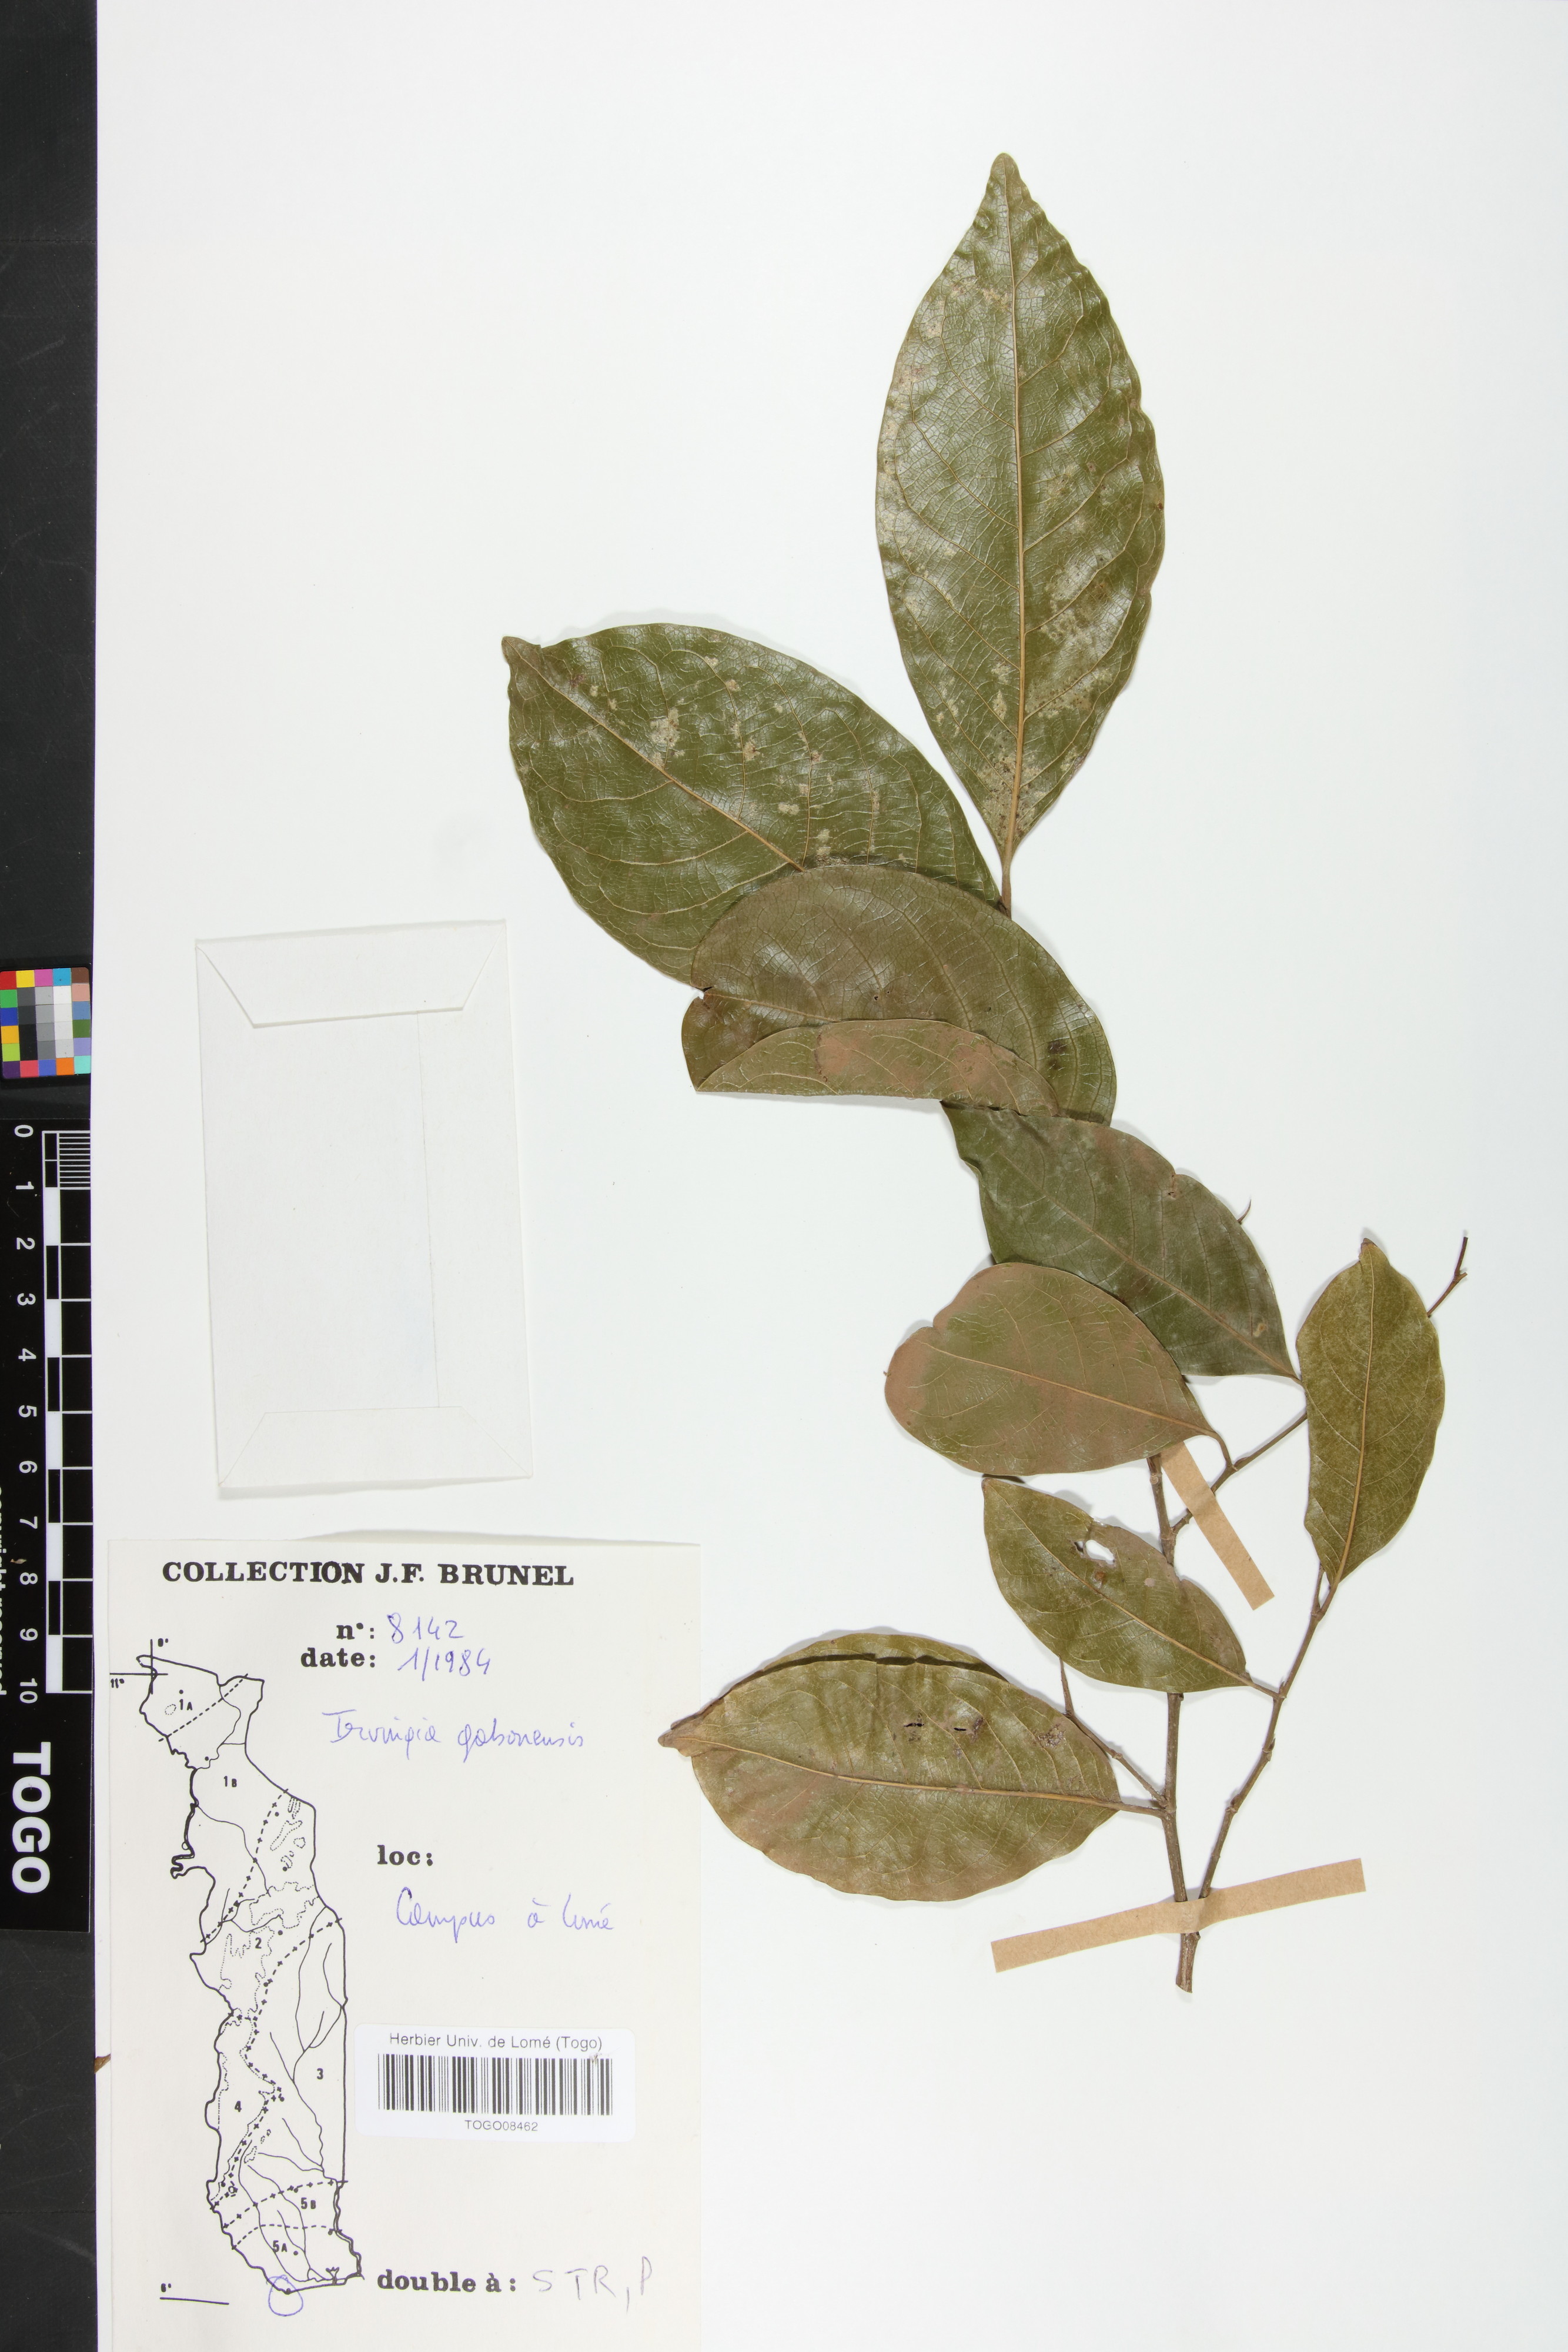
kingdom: Plantae
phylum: Tracheophyta
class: Magnoliopsida
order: Malpighiales
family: Irvingiaceae
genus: Irvingia
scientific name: Irvingia gabonensis
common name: Rainy season bush-mango
